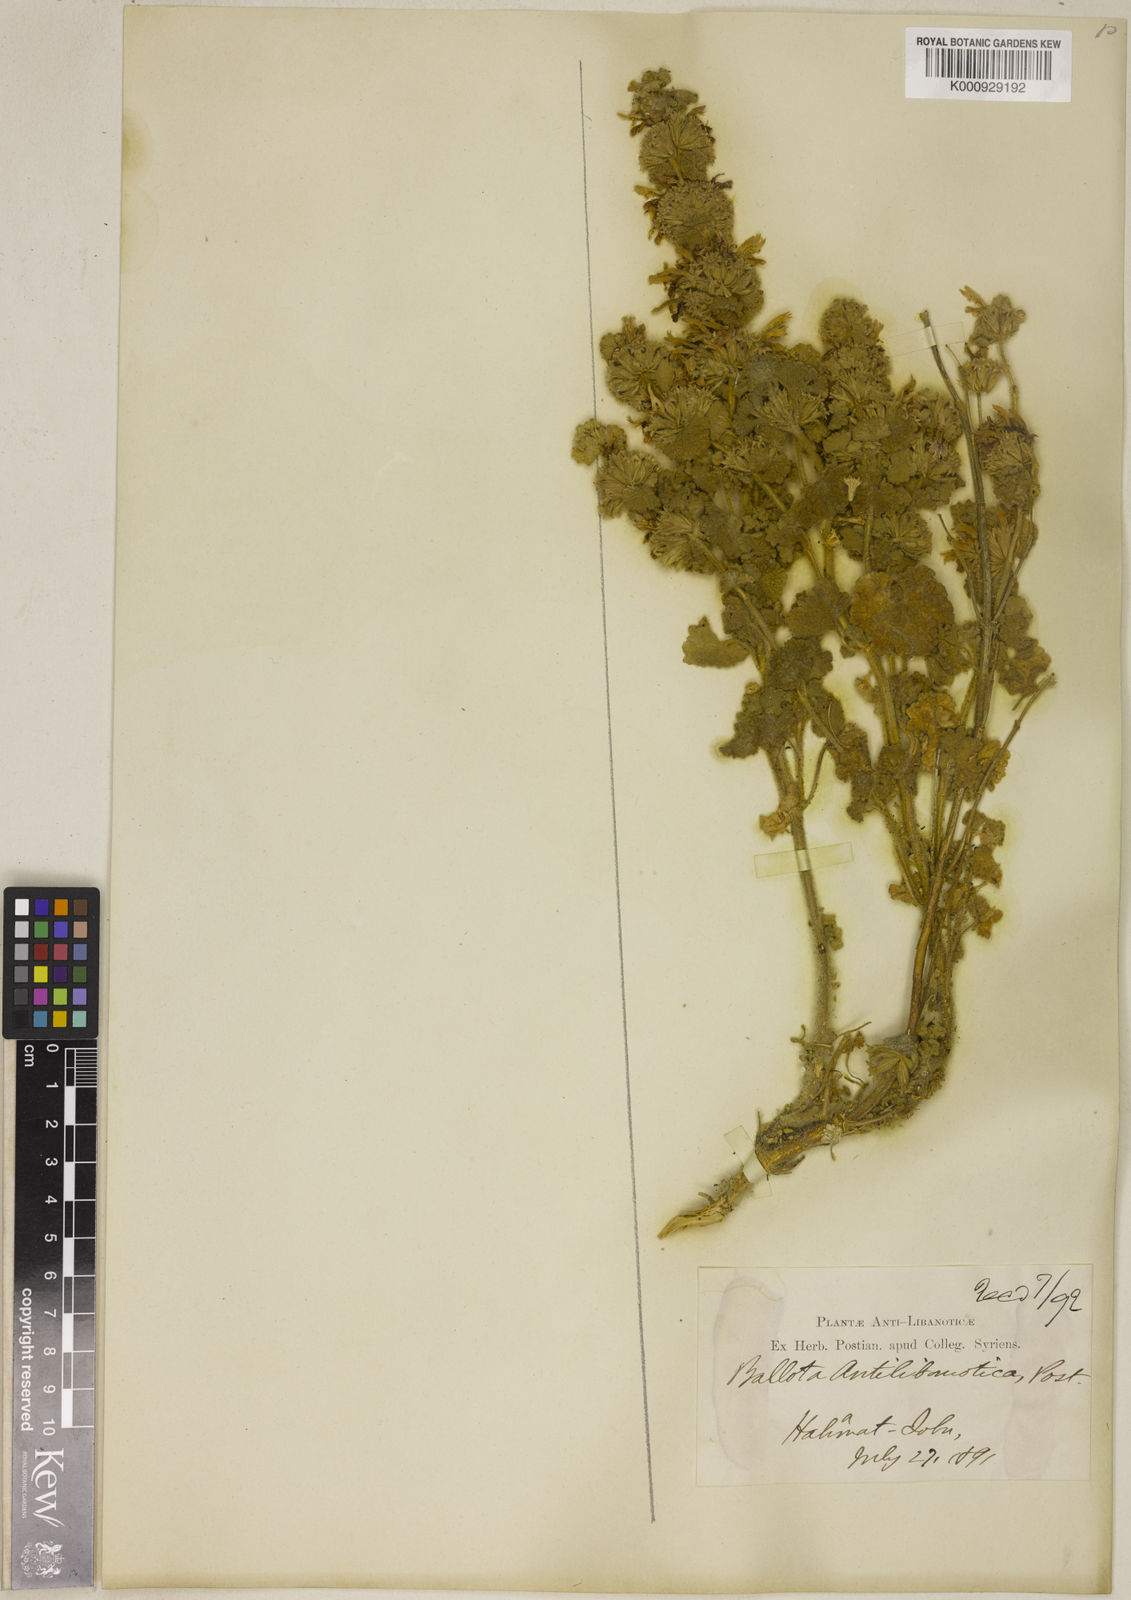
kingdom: Plantae
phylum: Tracheophyta
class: Magnoliopsida
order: Lamiales
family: Lamiaceae
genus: Ballota
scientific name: Ballota antilibanotica
